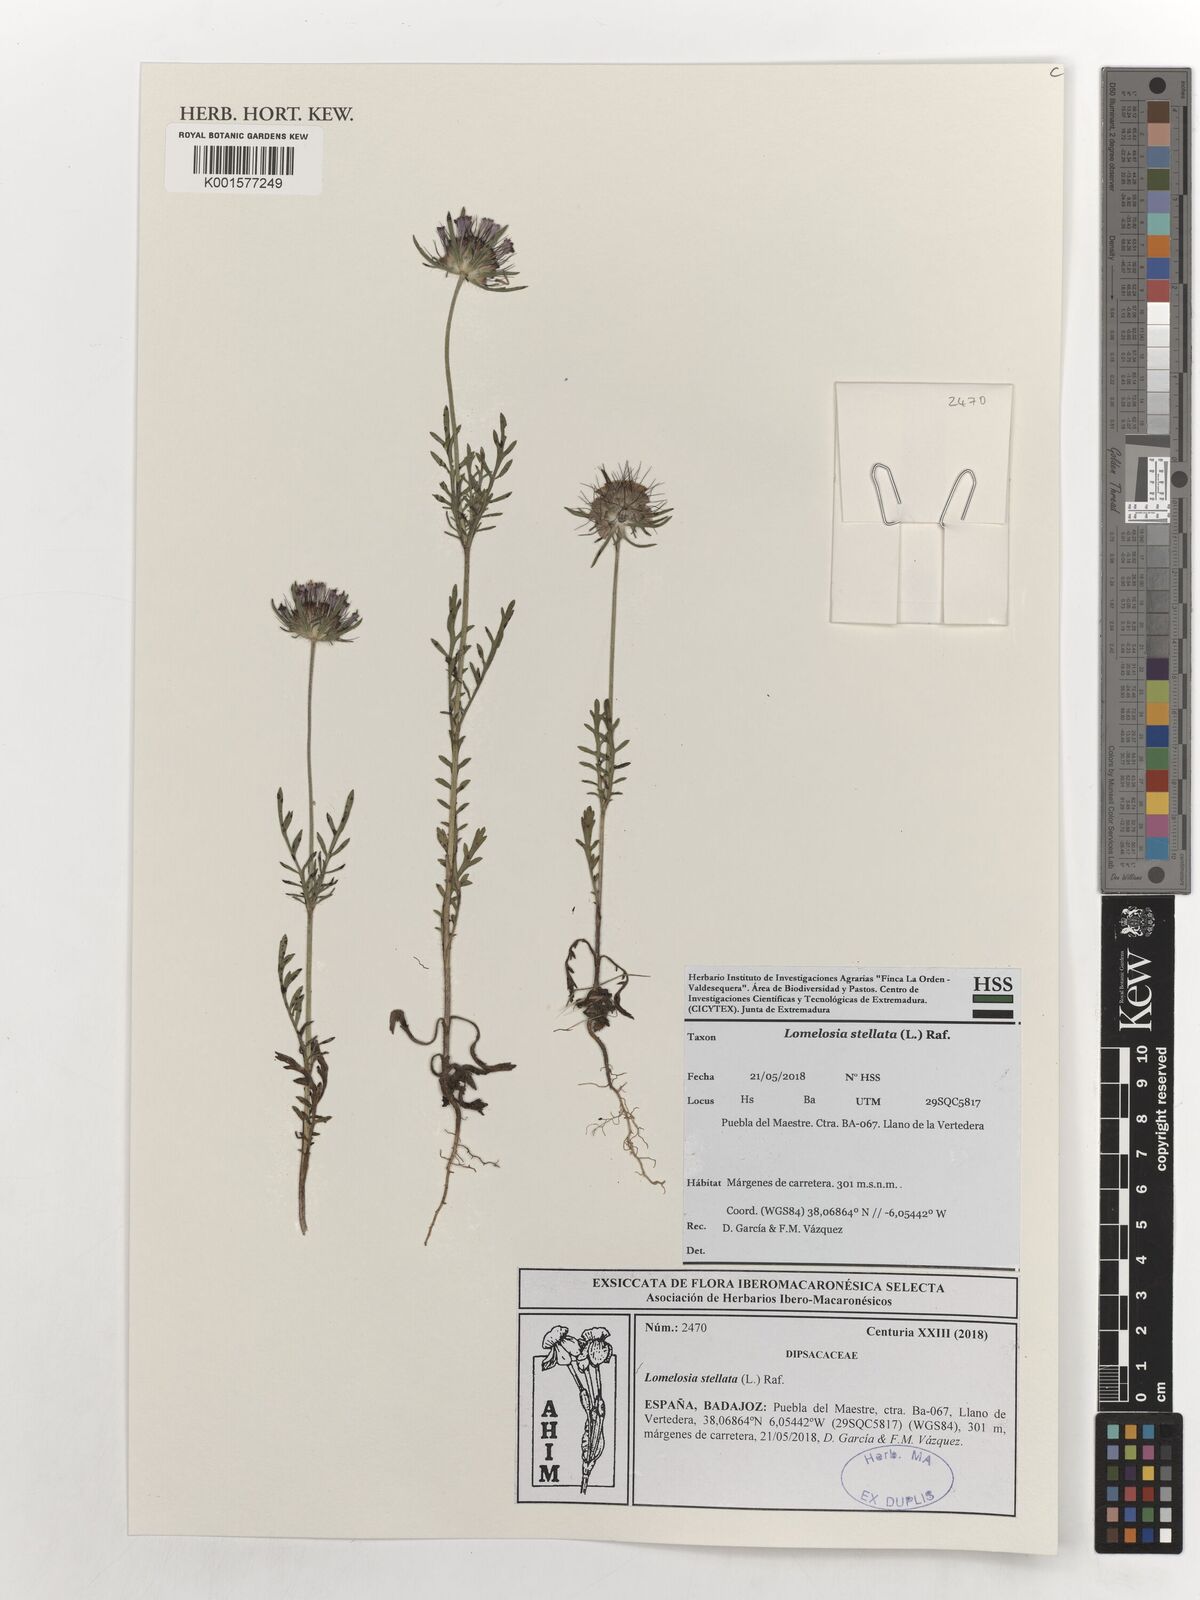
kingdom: Plantae
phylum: Tracheophyta
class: Magnoliopsida
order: Dipsacales
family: Caprifoliaceae
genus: Lomelosia
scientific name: Lomelosia stellata
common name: Teasel
